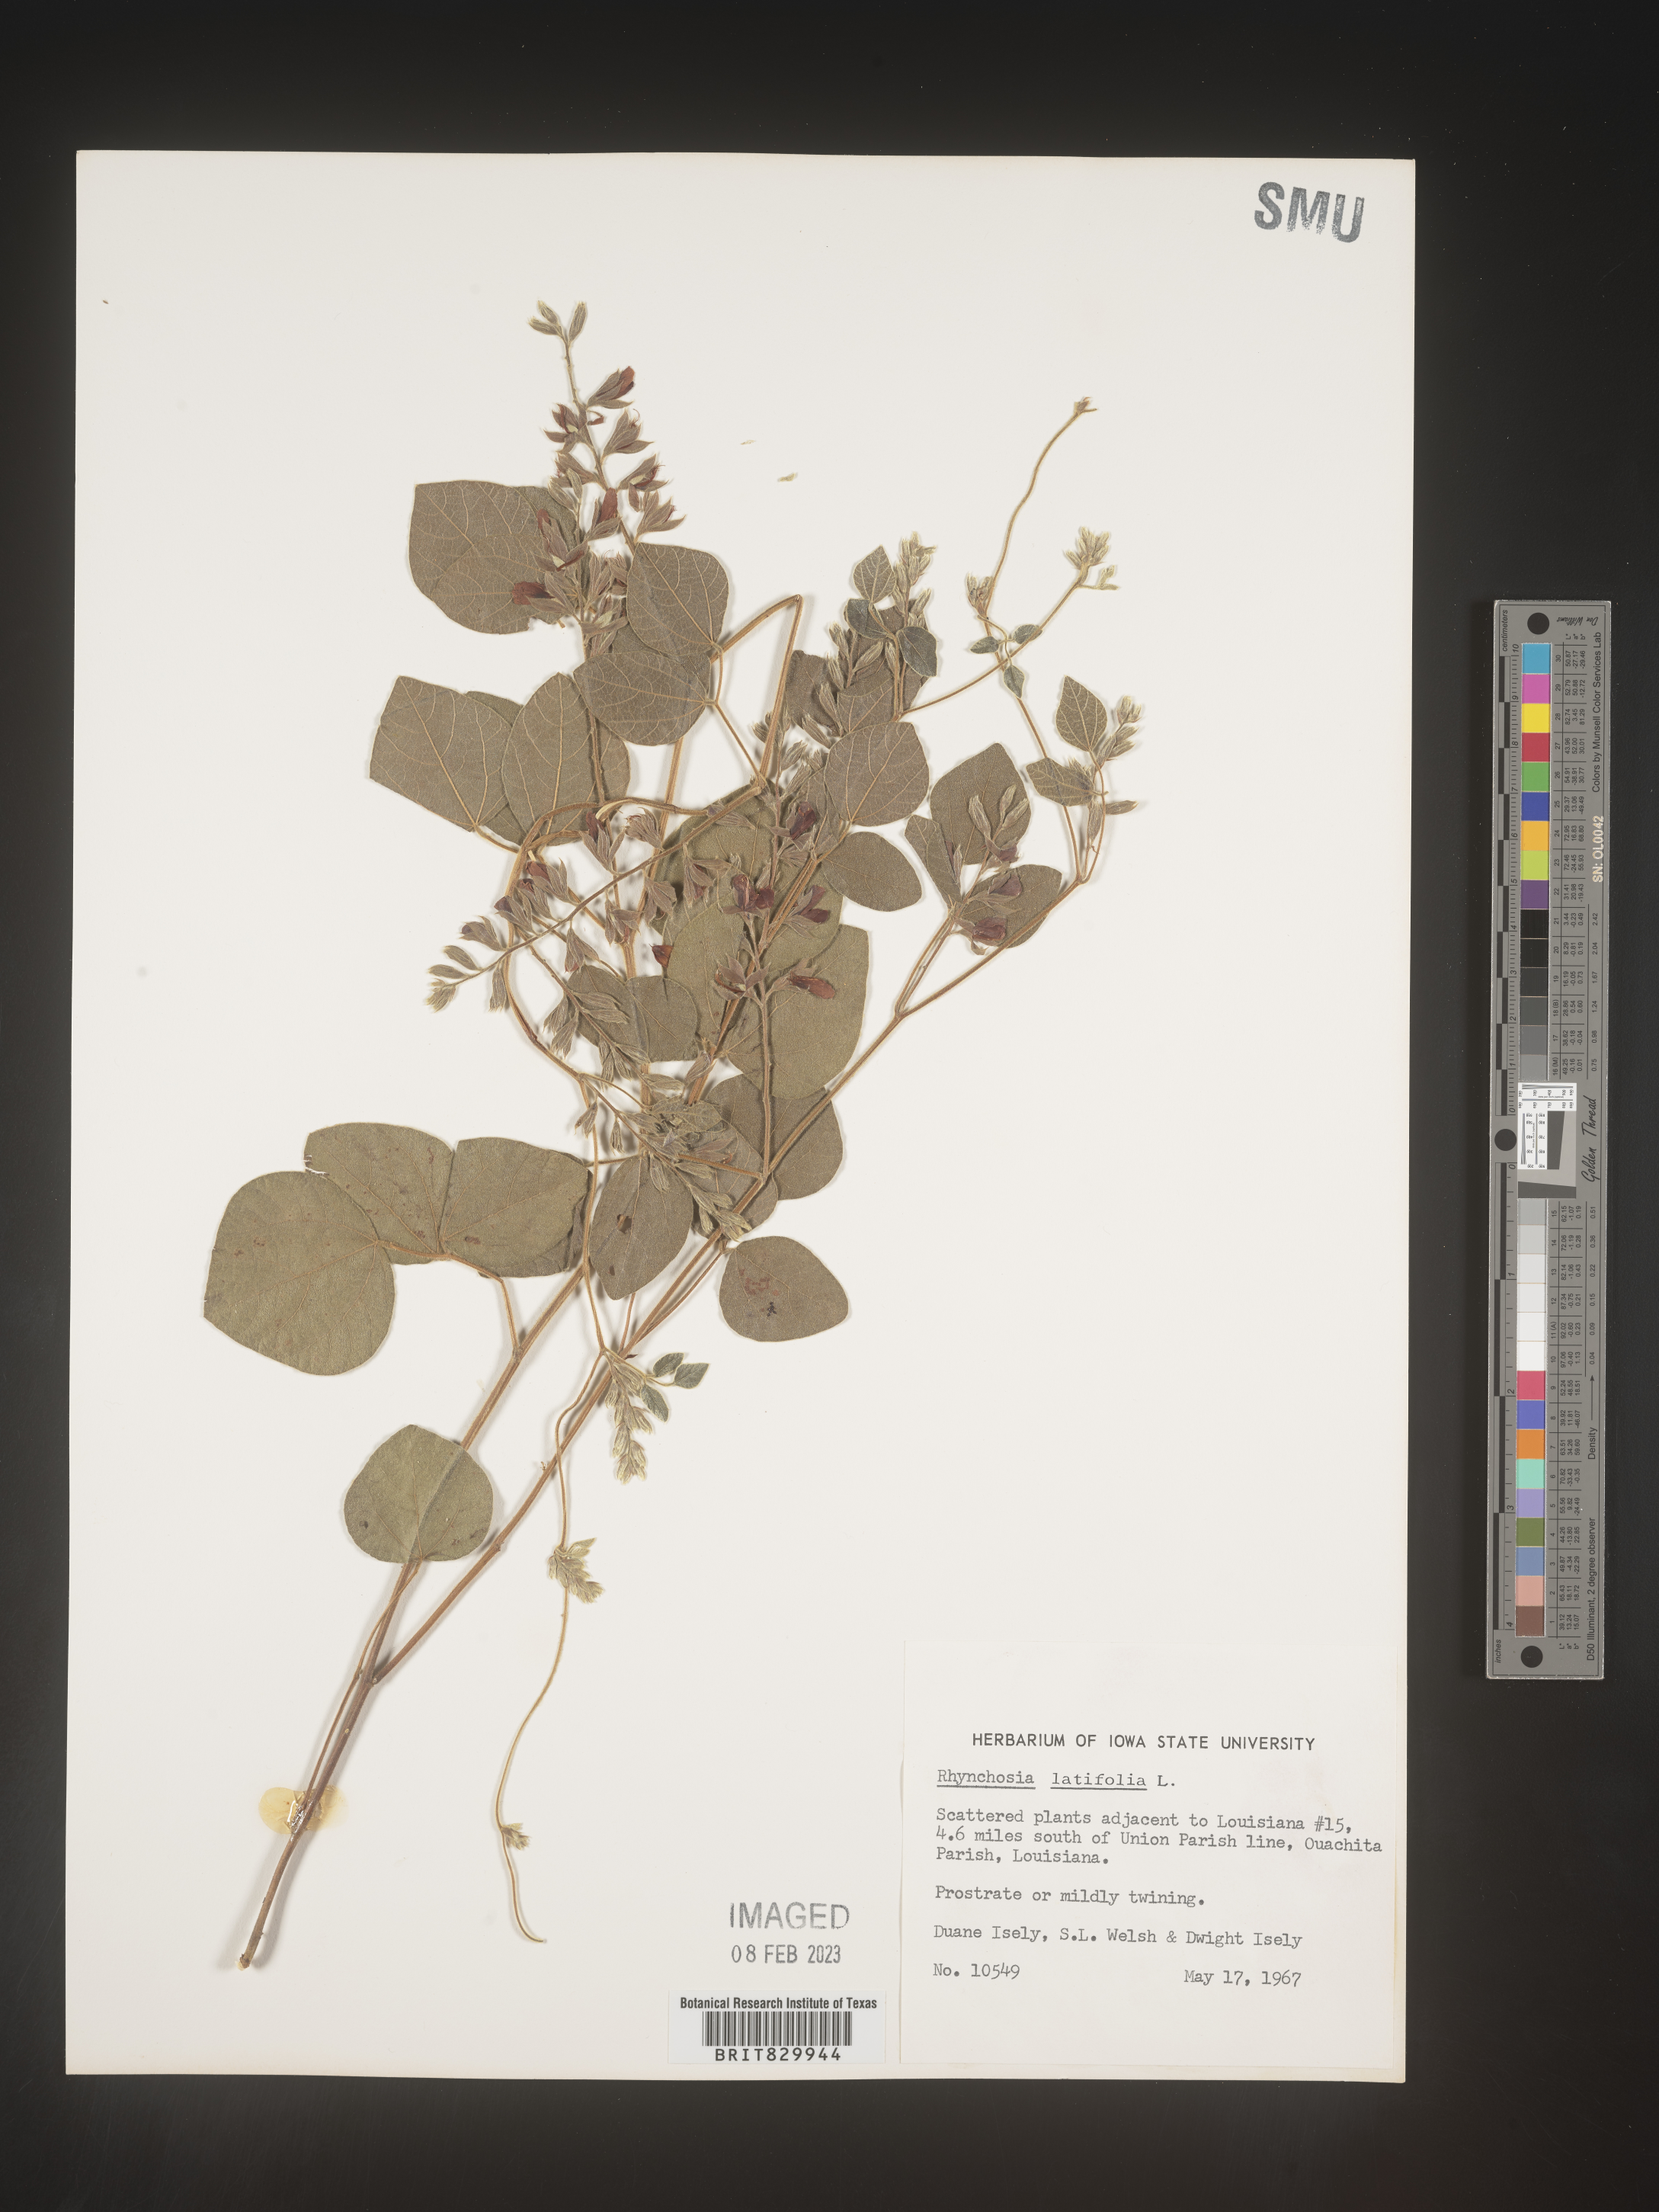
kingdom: Plantae
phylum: Tracheophyta
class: Magnoliopsida
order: Fabales
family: Fabaceae
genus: Rhynchosia
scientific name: Rhynchosia latifolia
